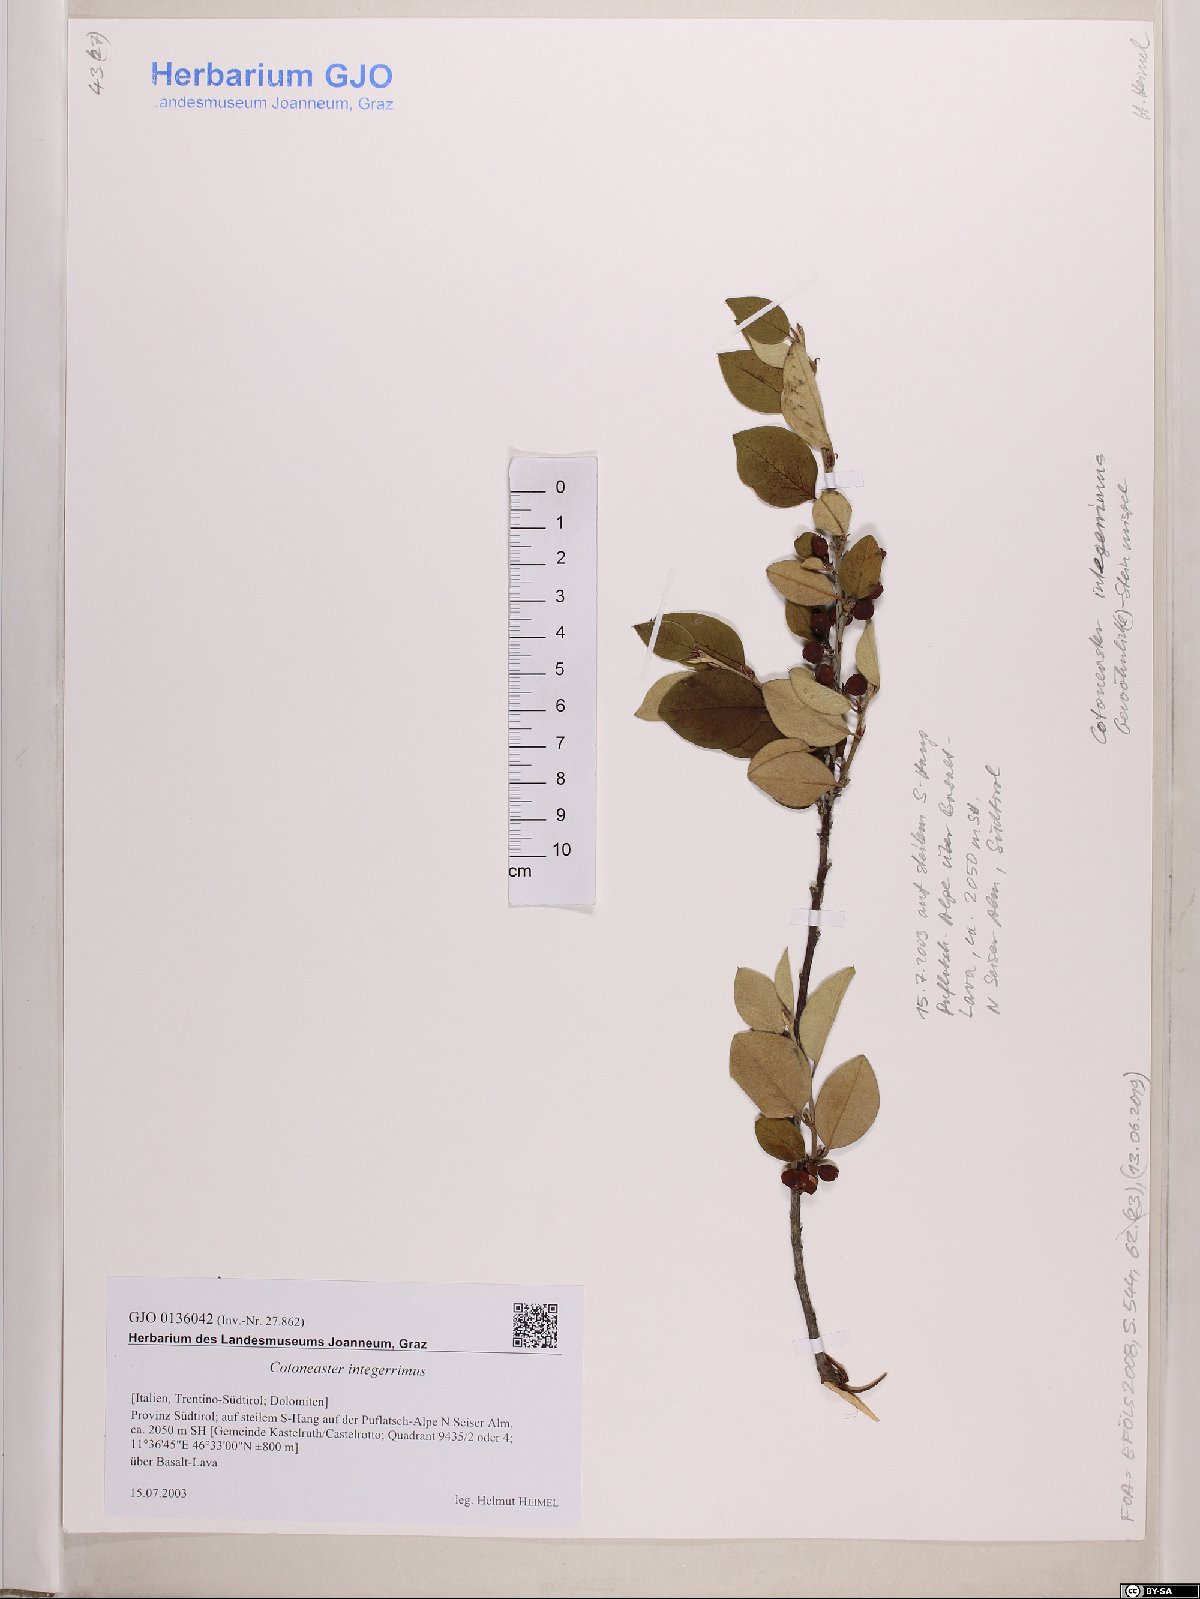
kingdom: Plantae
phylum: Tracheophyta
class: Magnoliopsida
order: Rosales
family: Rosaceae
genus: Cotoneaster
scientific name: Cotoneaster integerrimus
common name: Wild cotoneaster
